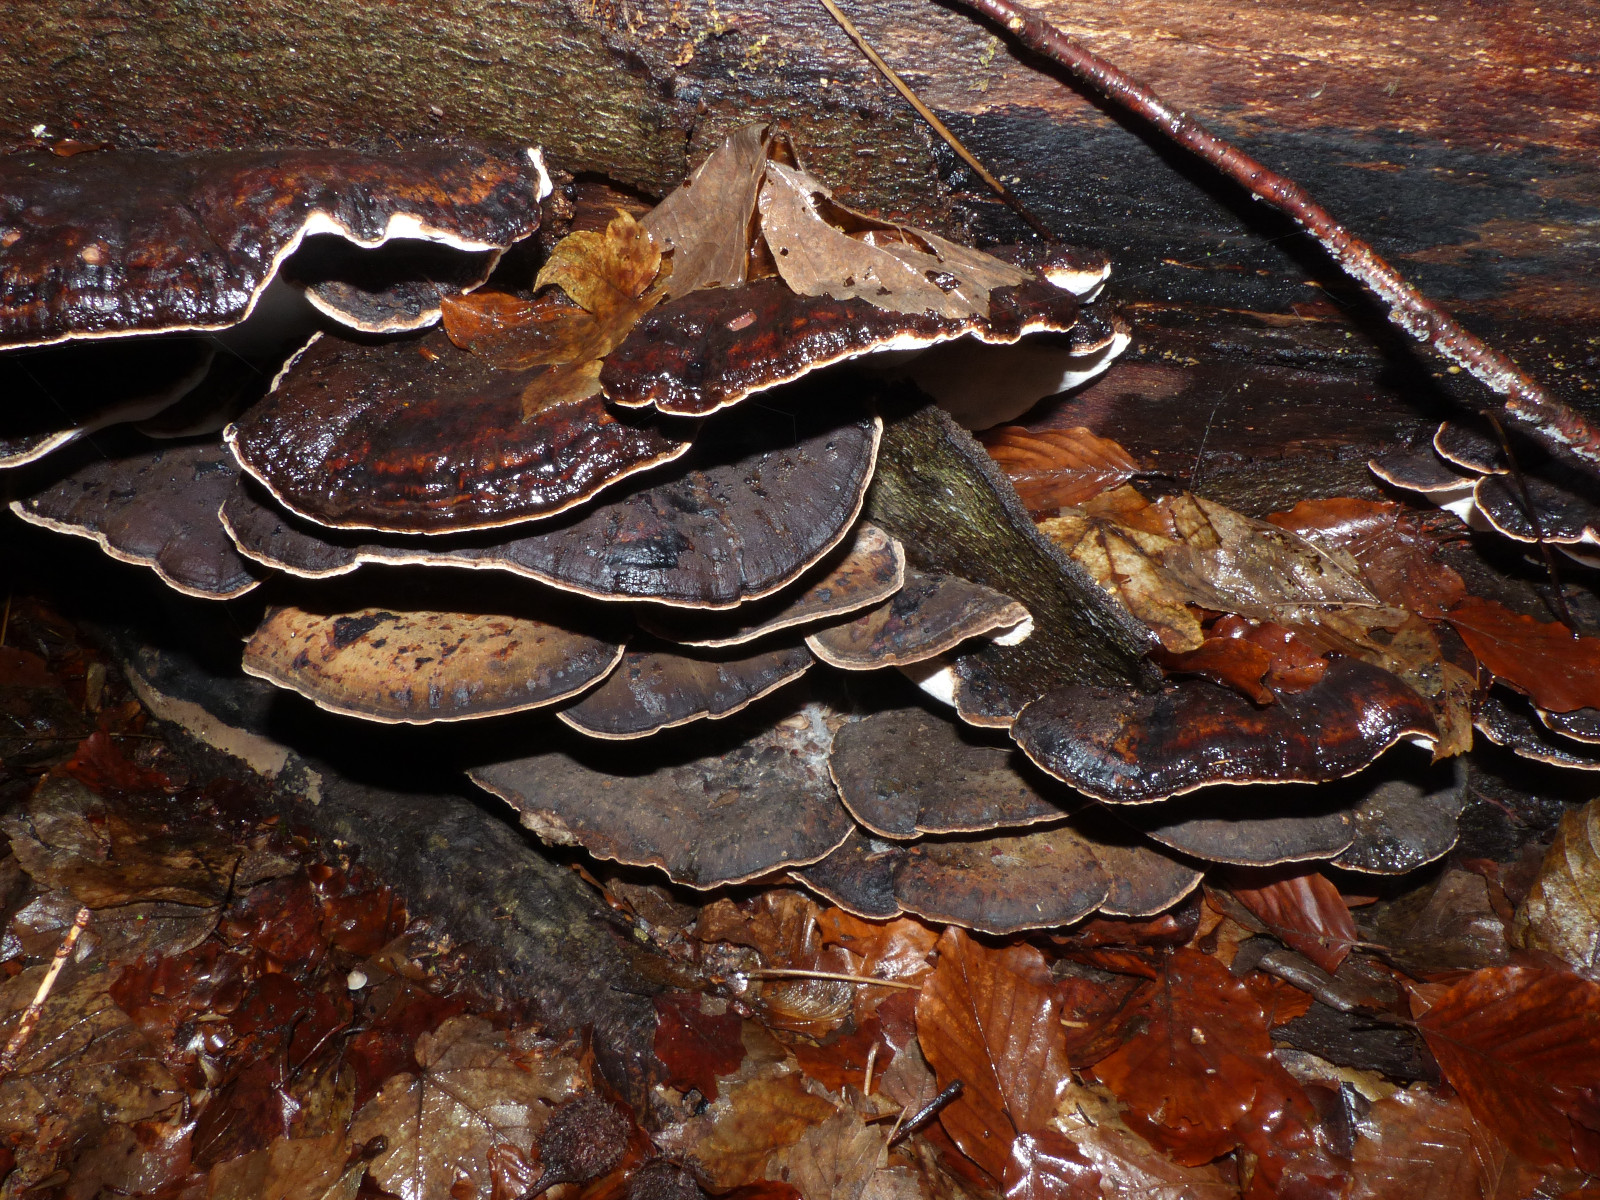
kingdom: Fungi
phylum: Basidiomycota
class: Agaricomycetes
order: Polyporales
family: Ischnodermataceae
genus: Ischnoderma
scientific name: Ischnoderma resinosum
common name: løv-tjæreporesvamp
